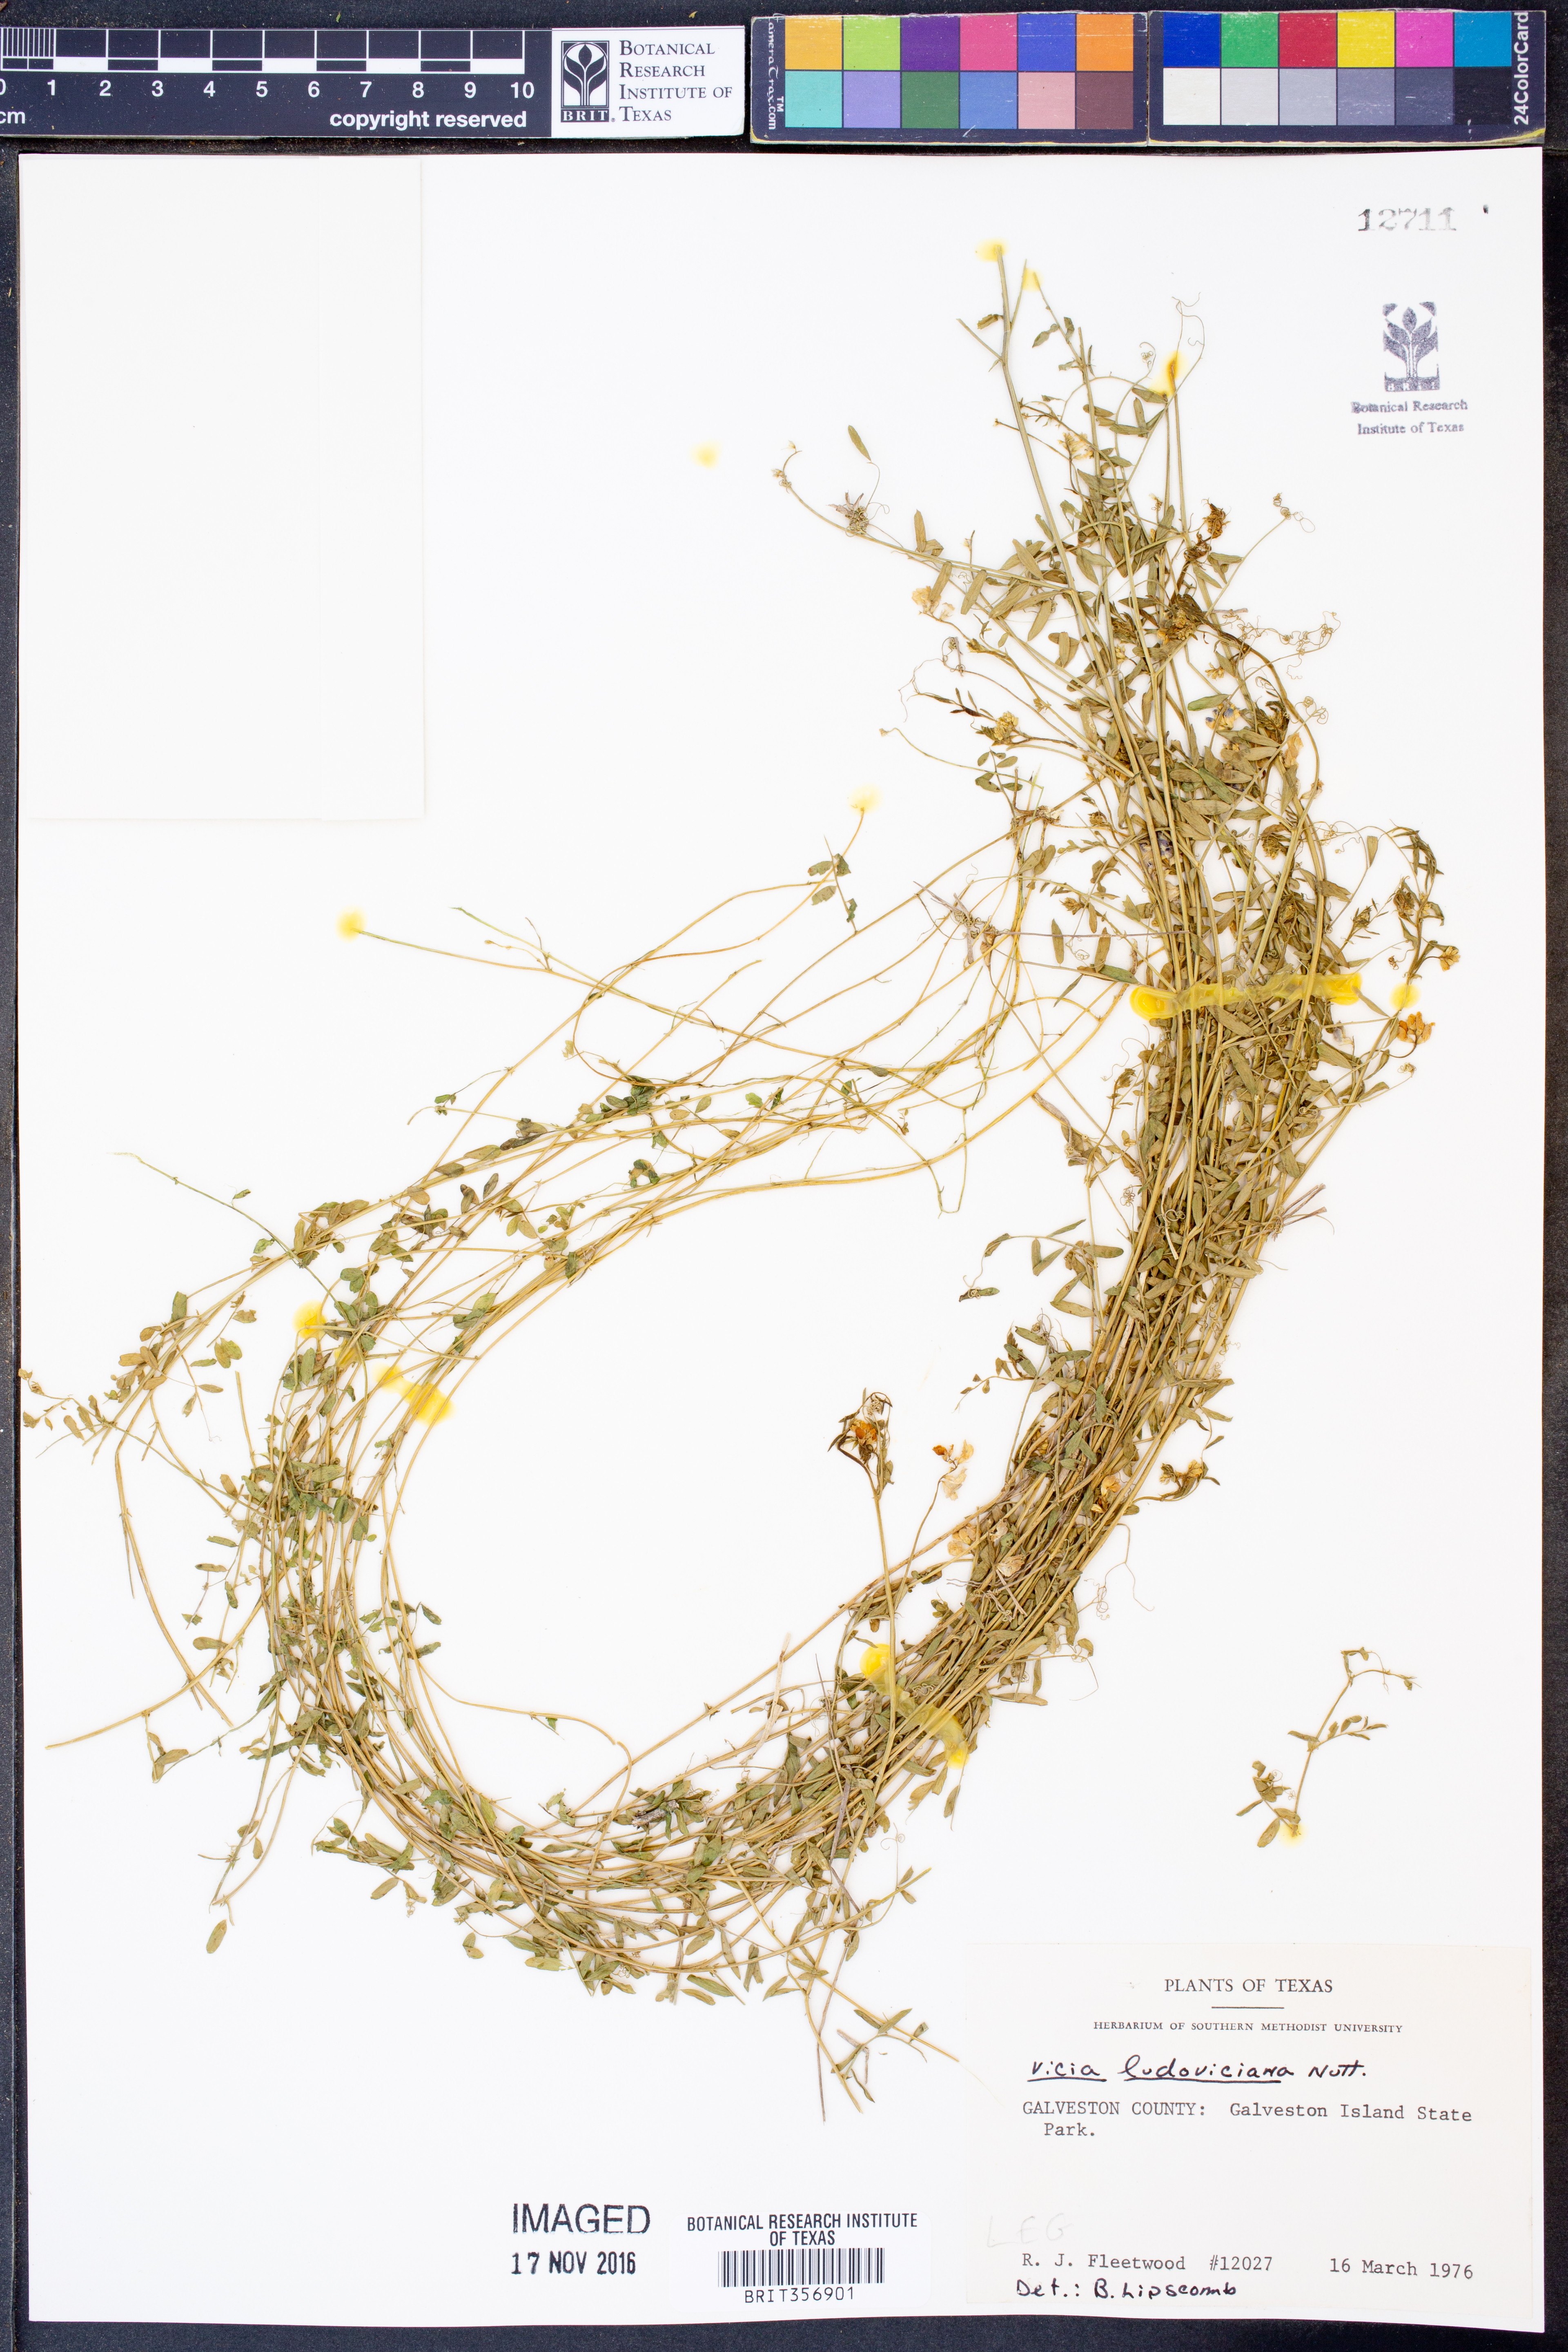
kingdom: Plantae
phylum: Tracheophyta
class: Magnoliopsida
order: Fabales
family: Fabaceae
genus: Vicia
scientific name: Vicia ludoviciana
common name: Louisiana vetch
